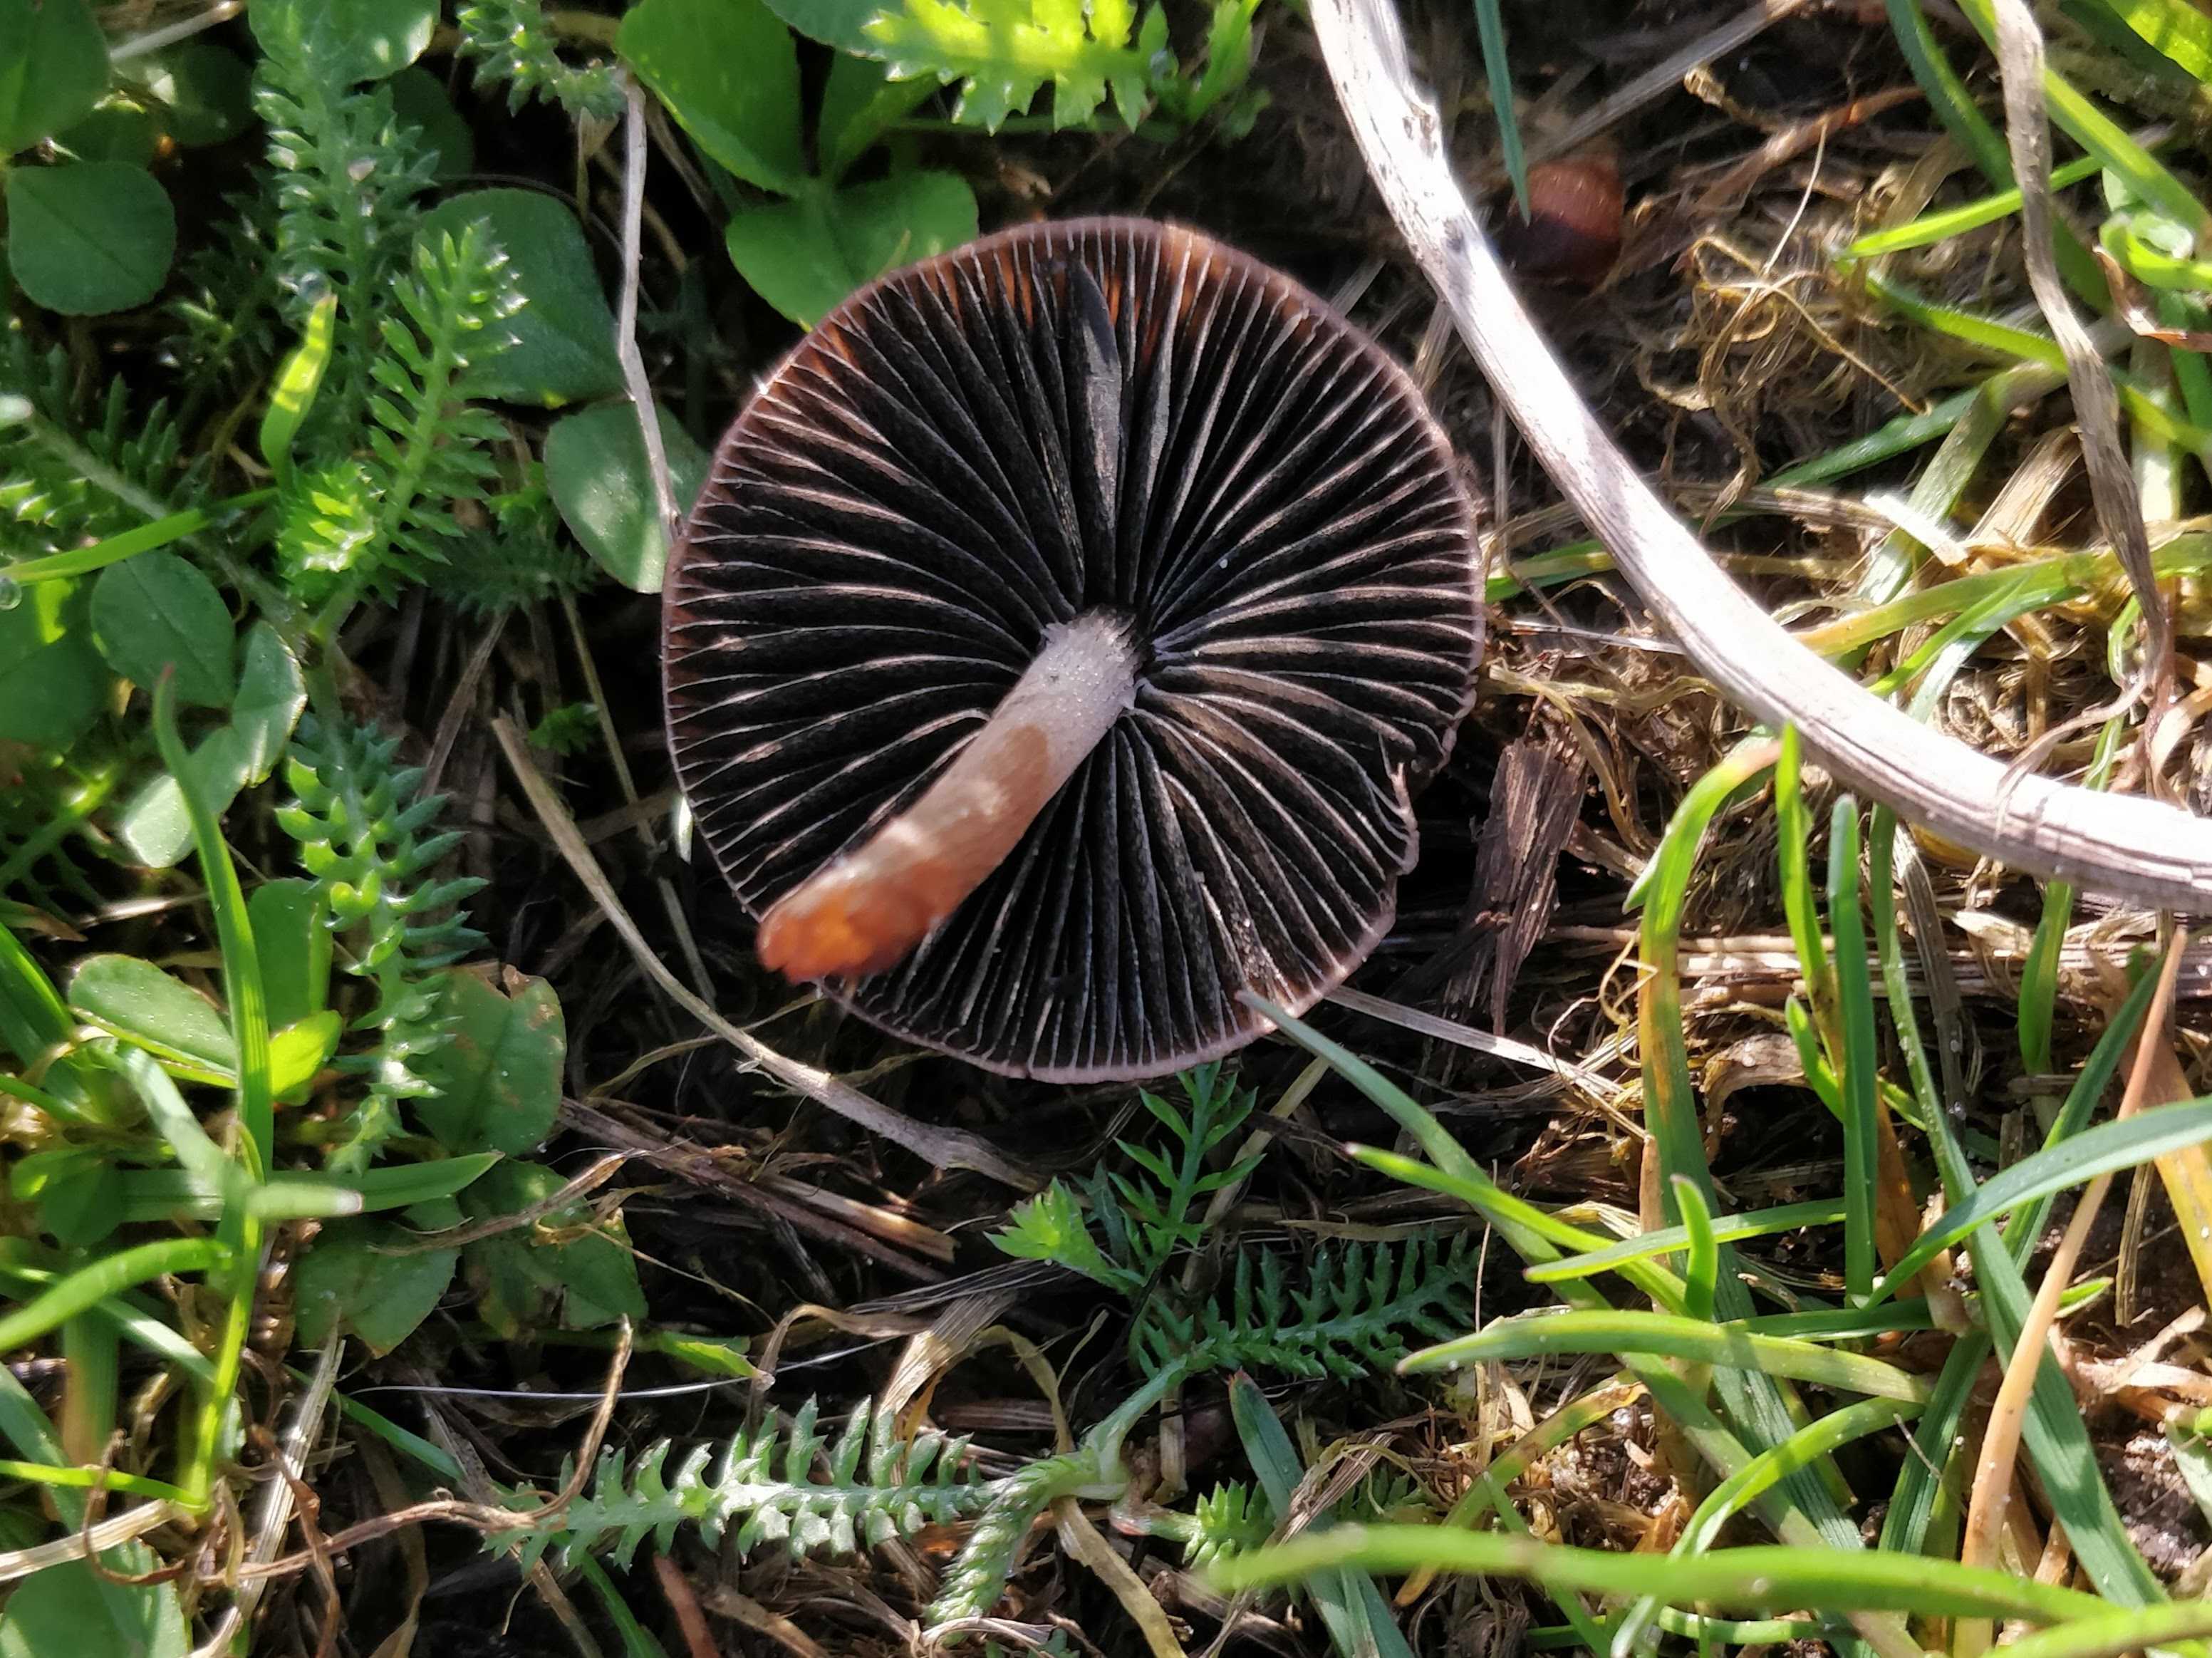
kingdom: Fungi
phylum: Basidiomycota
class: Agaricomycetes
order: Agaricales
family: Bolbitiaceae
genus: Panaeolus
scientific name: Panaeolus fimicola
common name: tidlig glanshat
